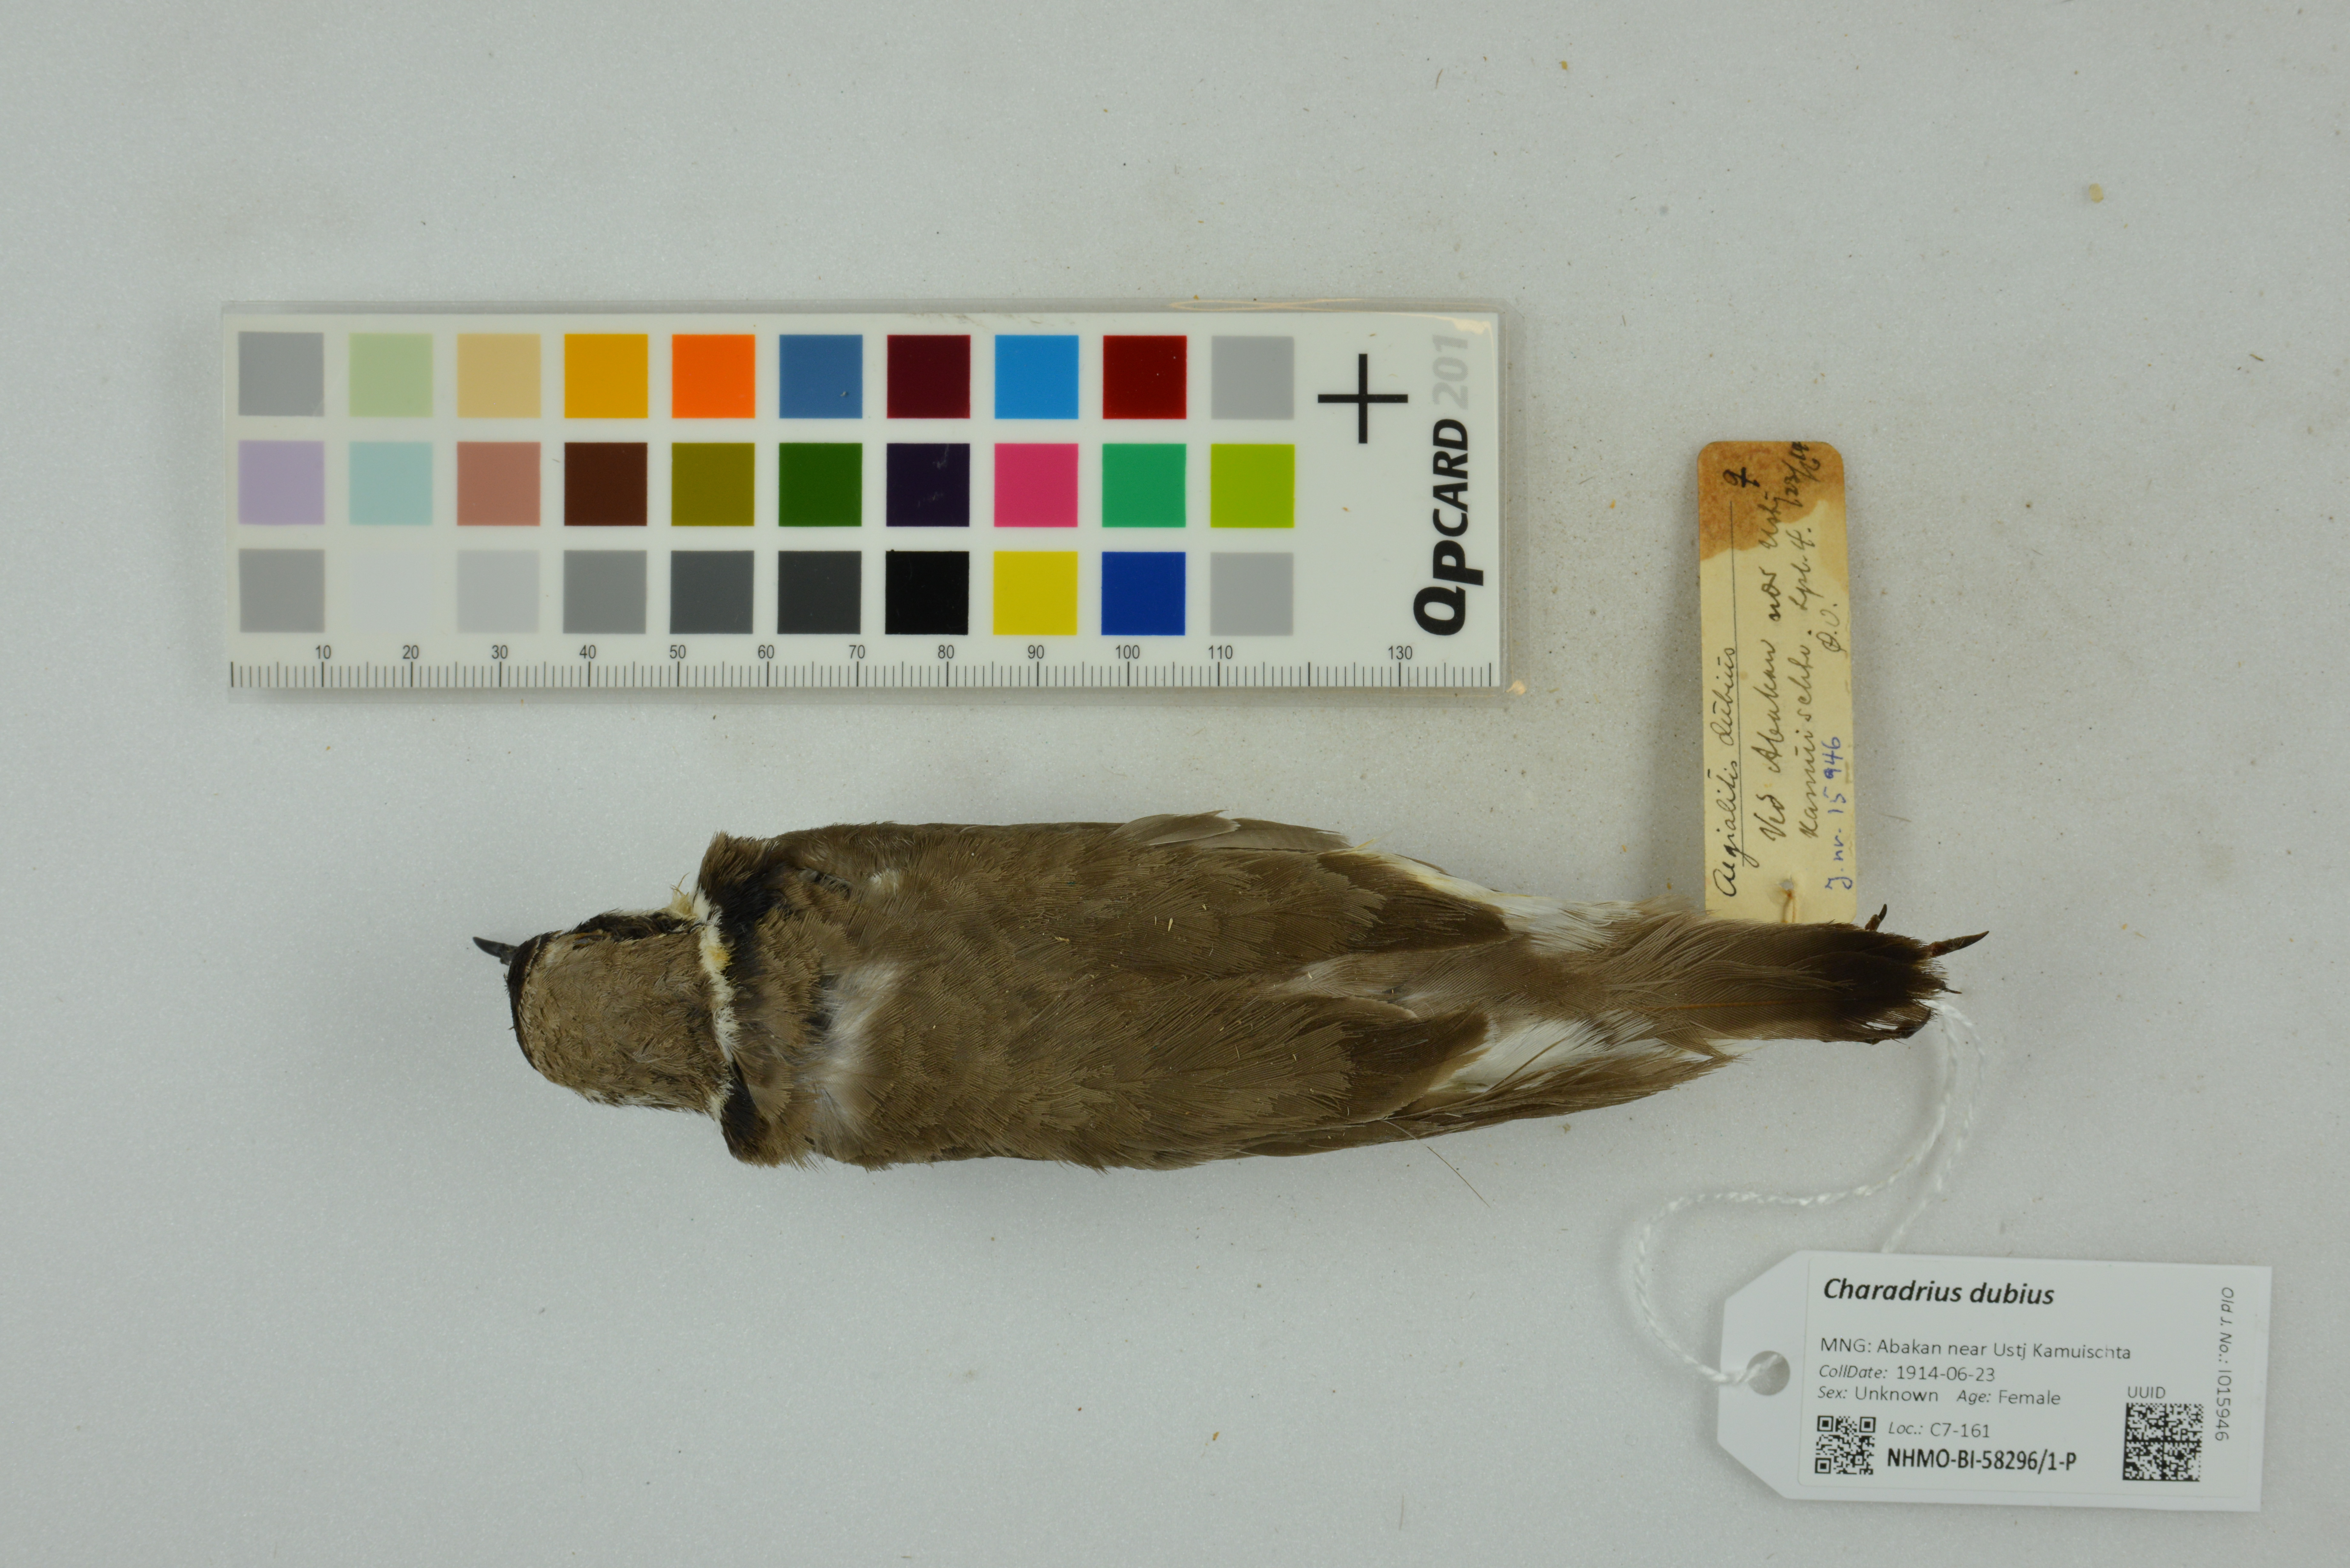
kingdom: Animalia
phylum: Chordata
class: Aves
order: Charadriiformes
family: Charadriidae
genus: Charadrius
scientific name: Charadrius dubius
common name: Little ringed plover
